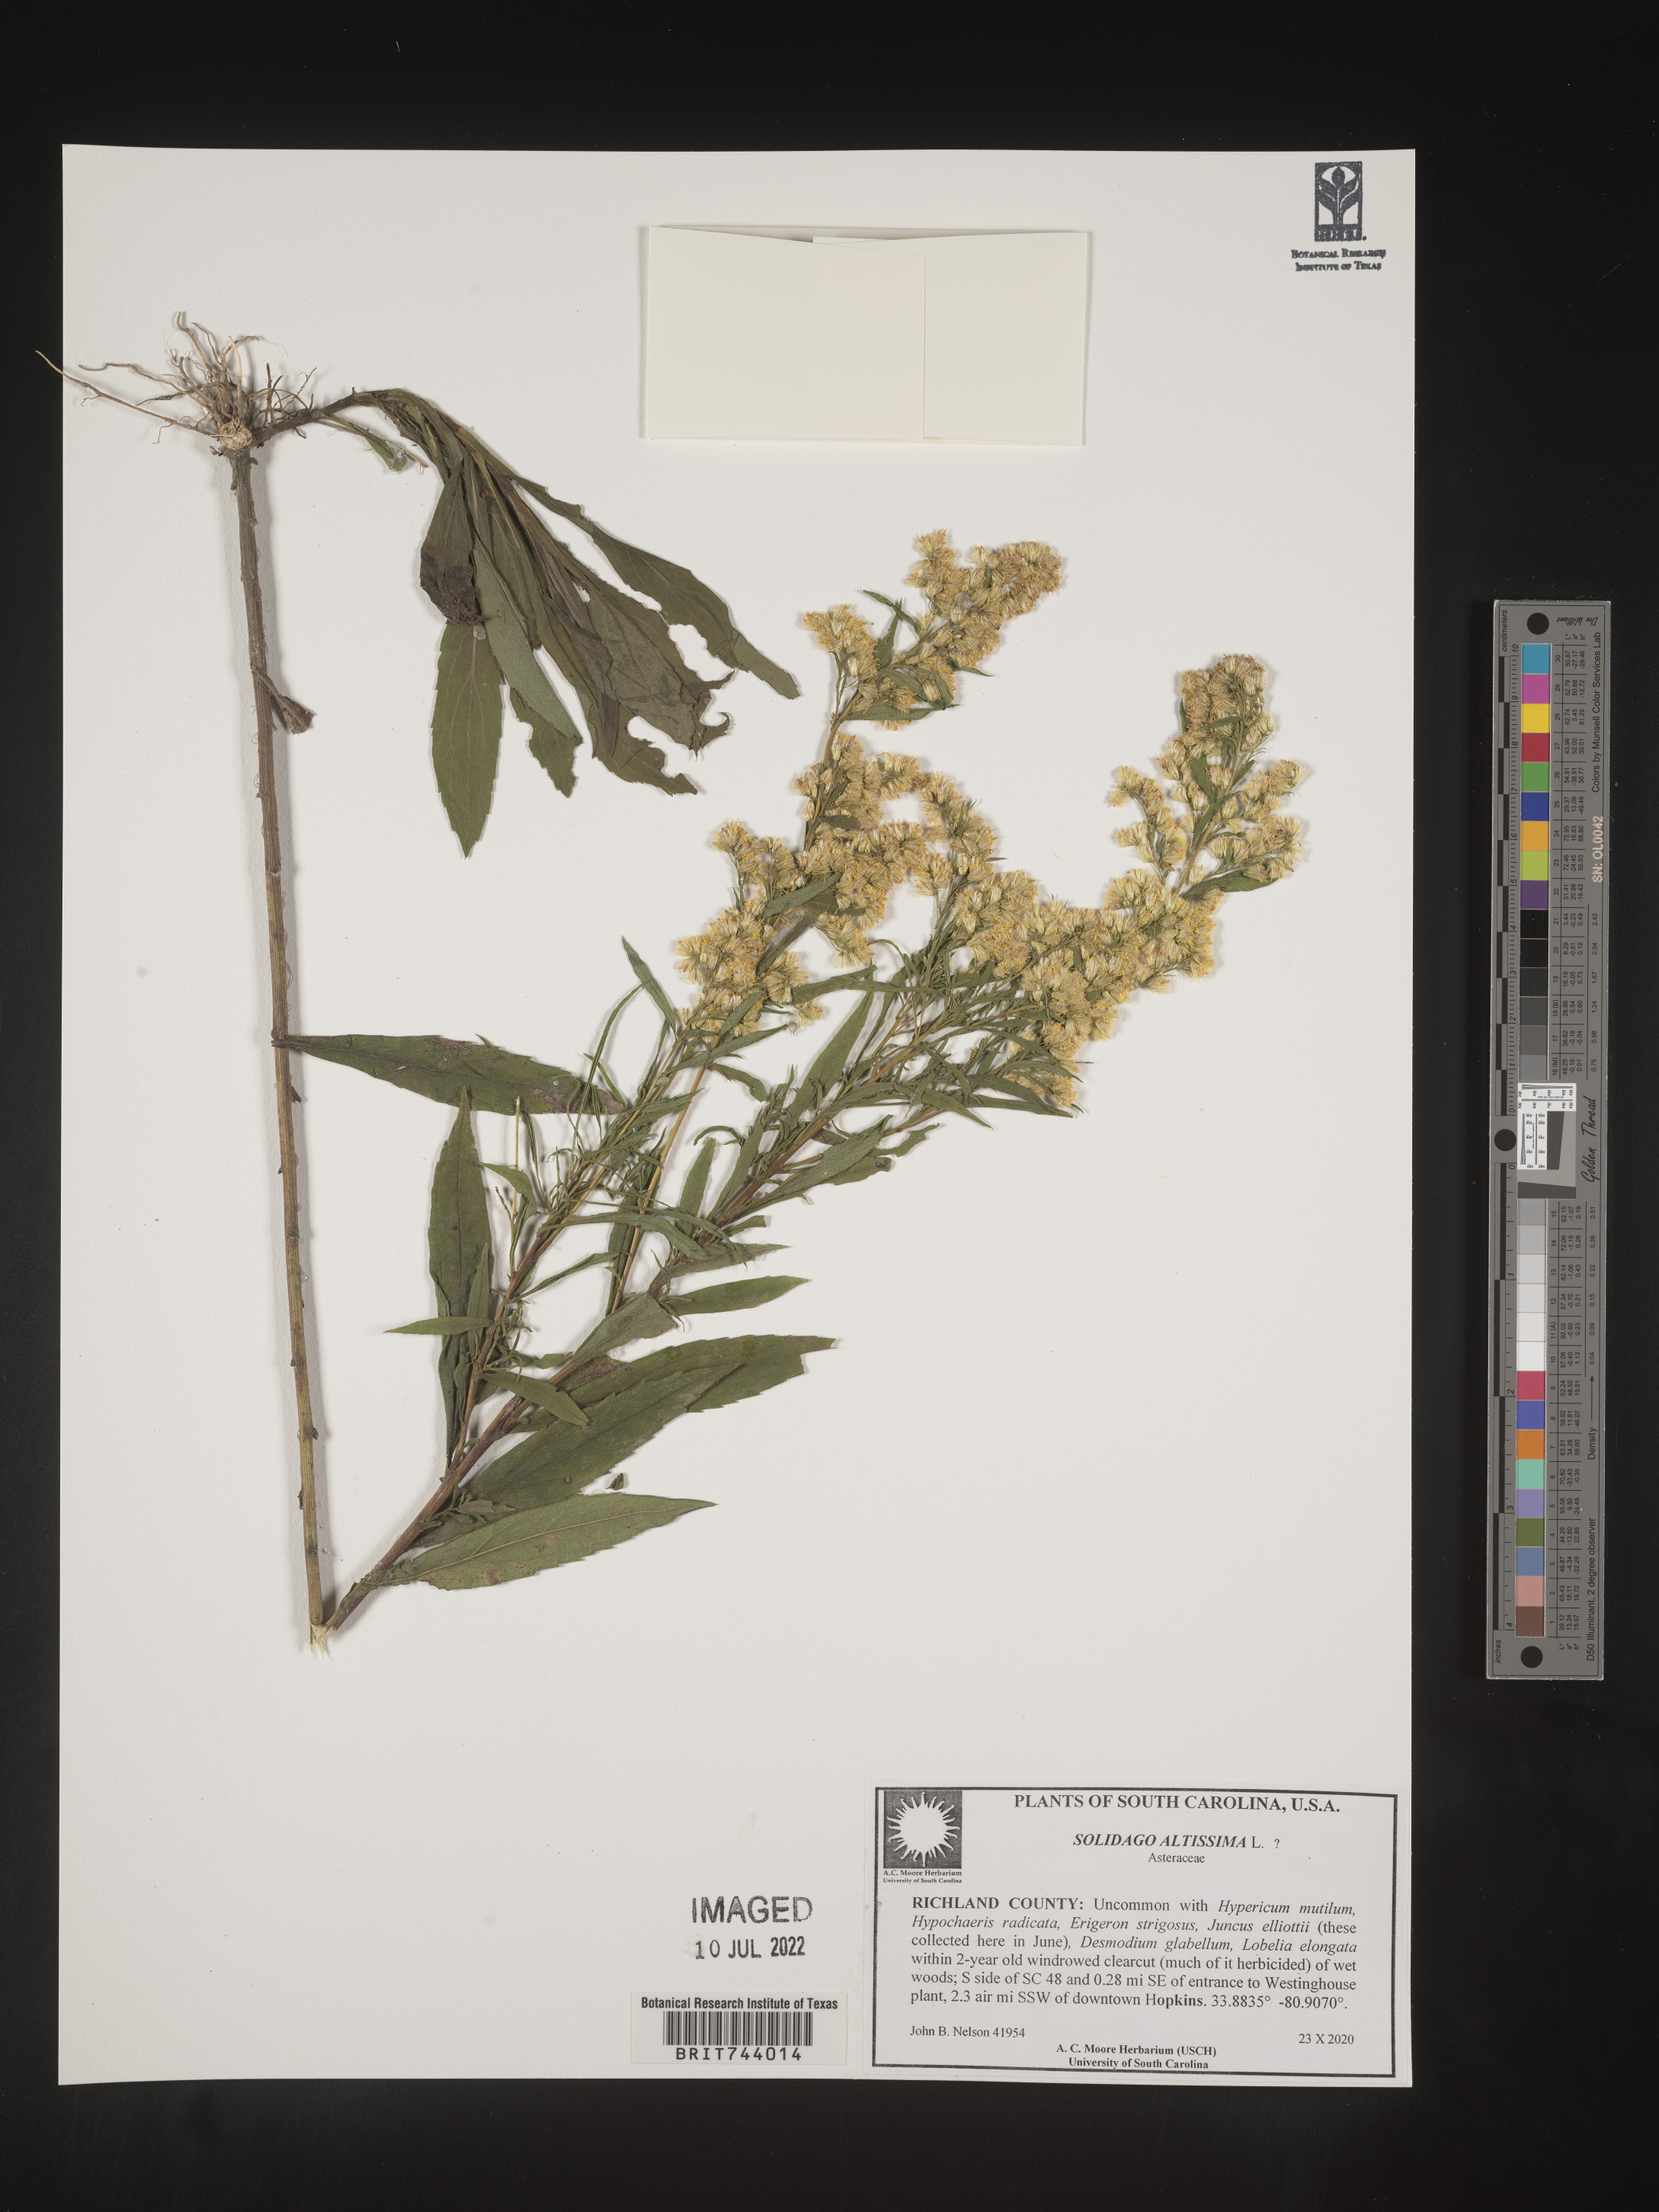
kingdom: Plantae
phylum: Tracheophyta
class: Magnoliopsida
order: Asterales
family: Asteraceae
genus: Solidago
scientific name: Solidago altissima
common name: Late goldenrod
